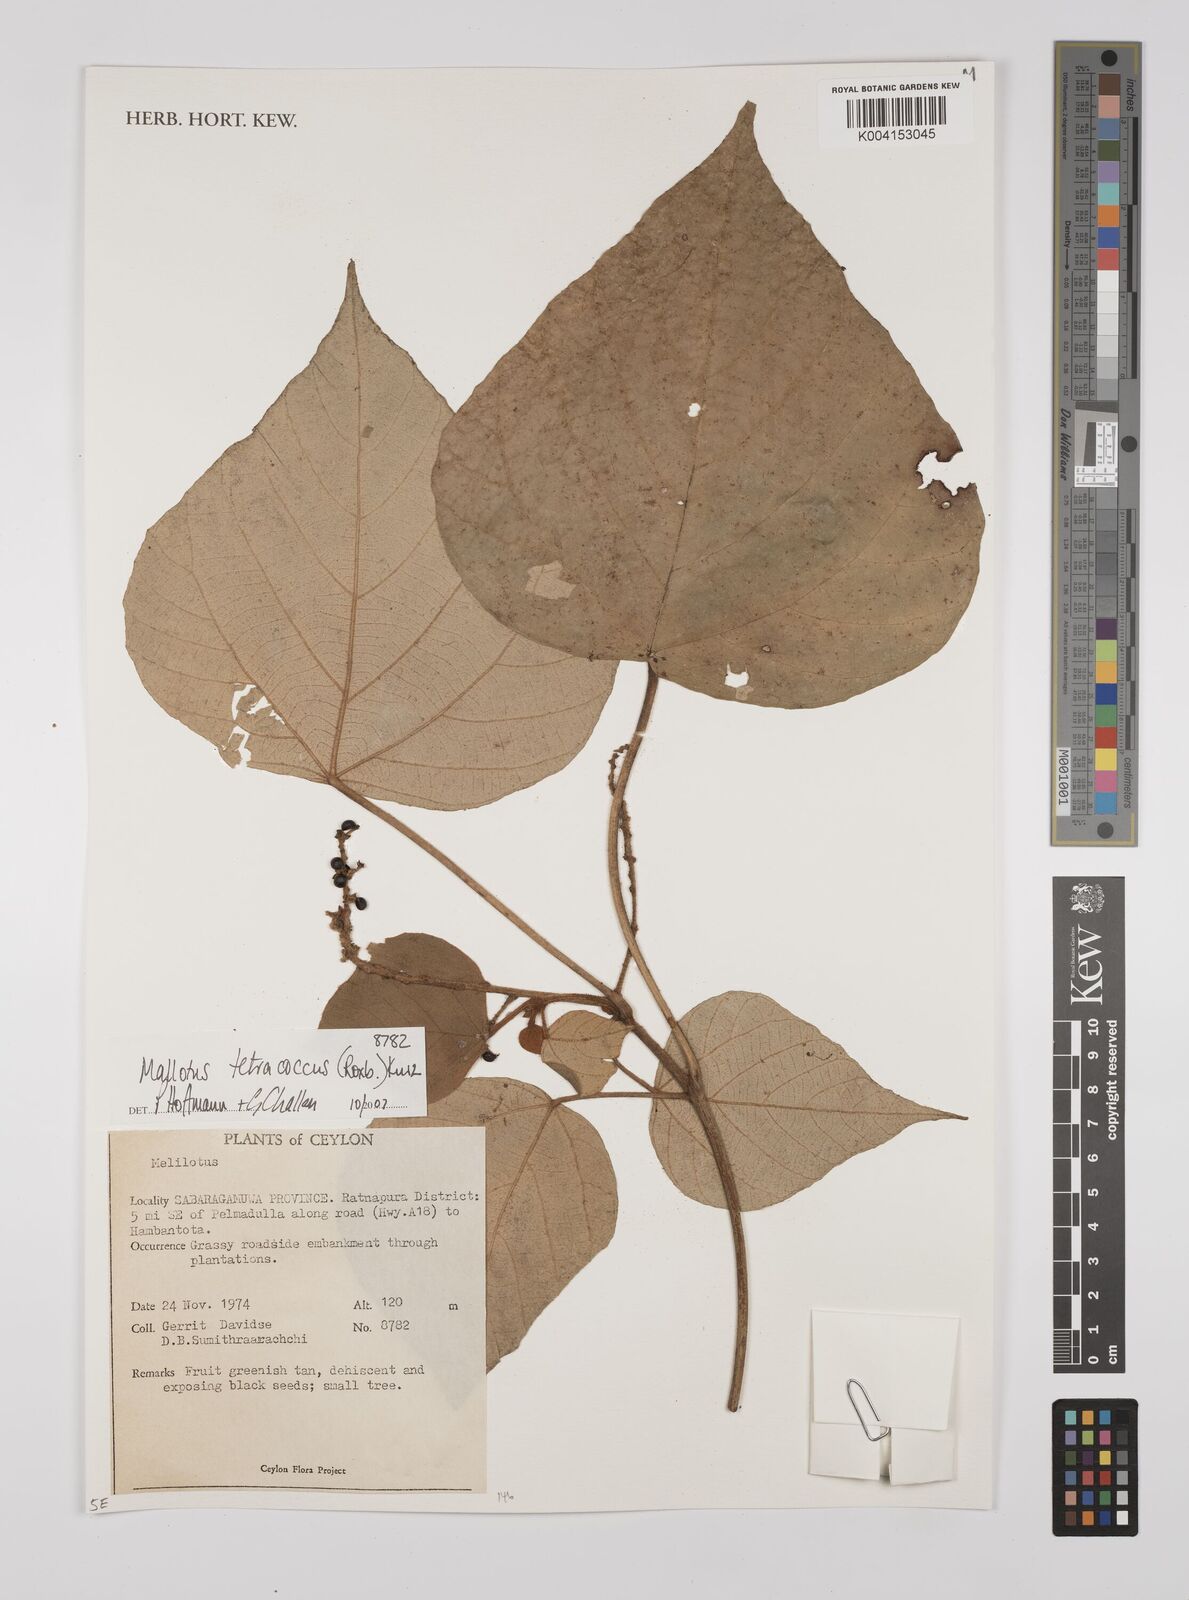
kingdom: Plantae
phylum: Tracheophyta
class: Magnoliopsida
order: Malpighiales
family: Euphorbiaceae
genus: Mallotus
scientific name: Mallotus tetracoccus
